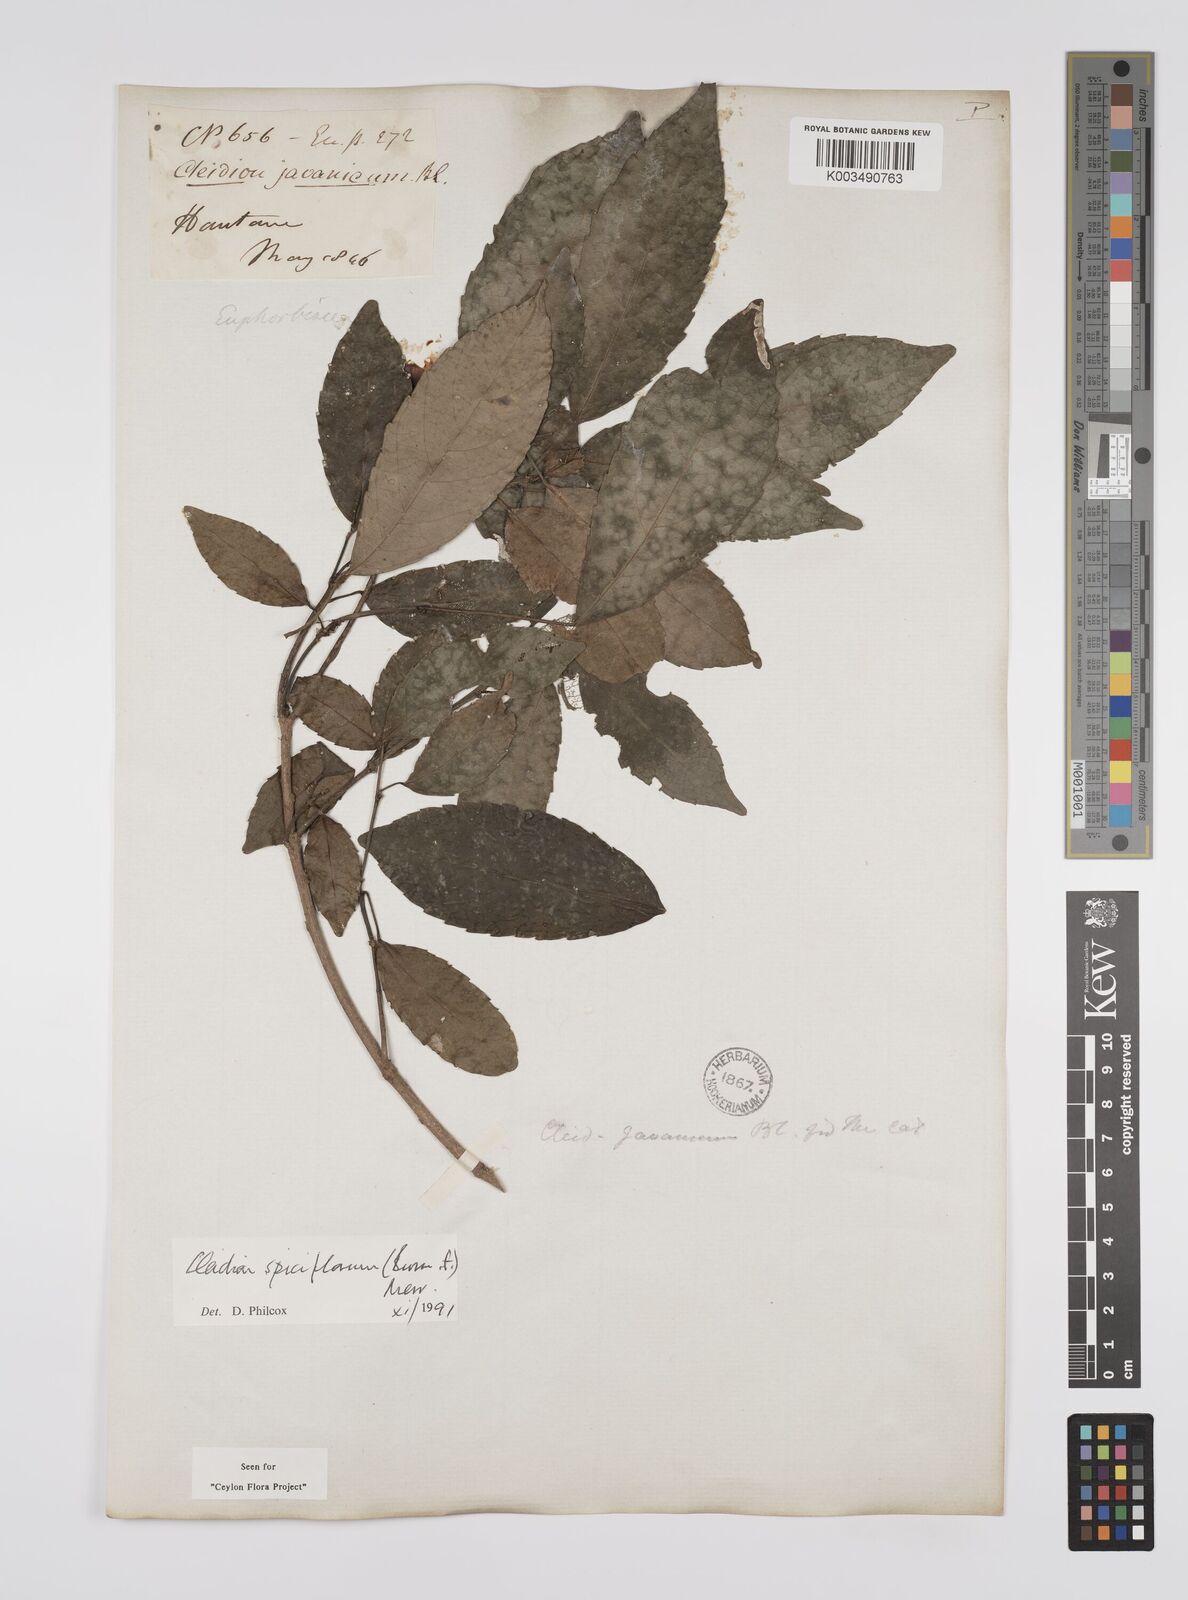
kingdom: Plantae
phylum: Tracheophyta
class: Magnoliopsida
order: Malpighiales
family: Euphorbiaceae
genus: Acalypha
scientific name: Acalypha spiciflora
